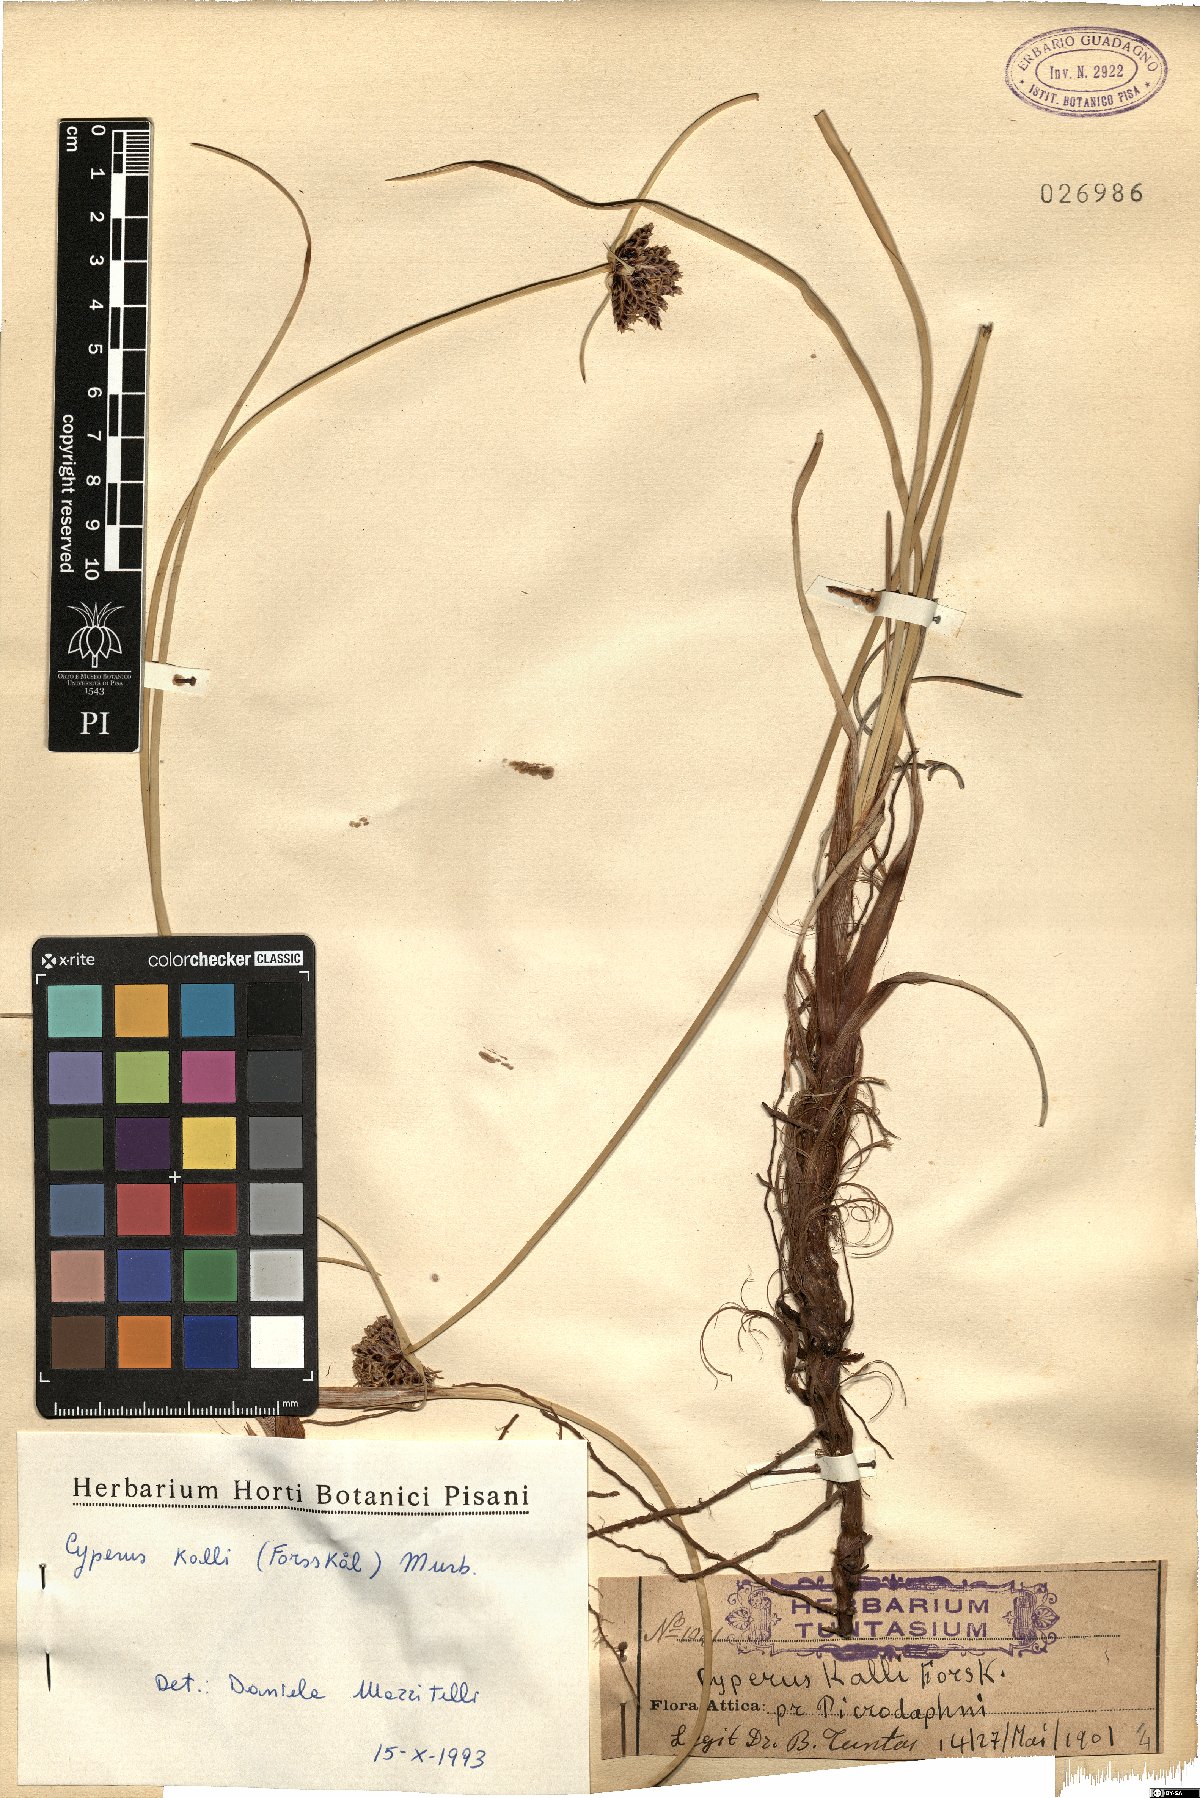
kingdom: Plantae
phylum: Tracheophyta
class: Liliopsida
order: Poales
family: Cyperaceae
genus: Cyperus
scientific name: Cyperus capitatus
